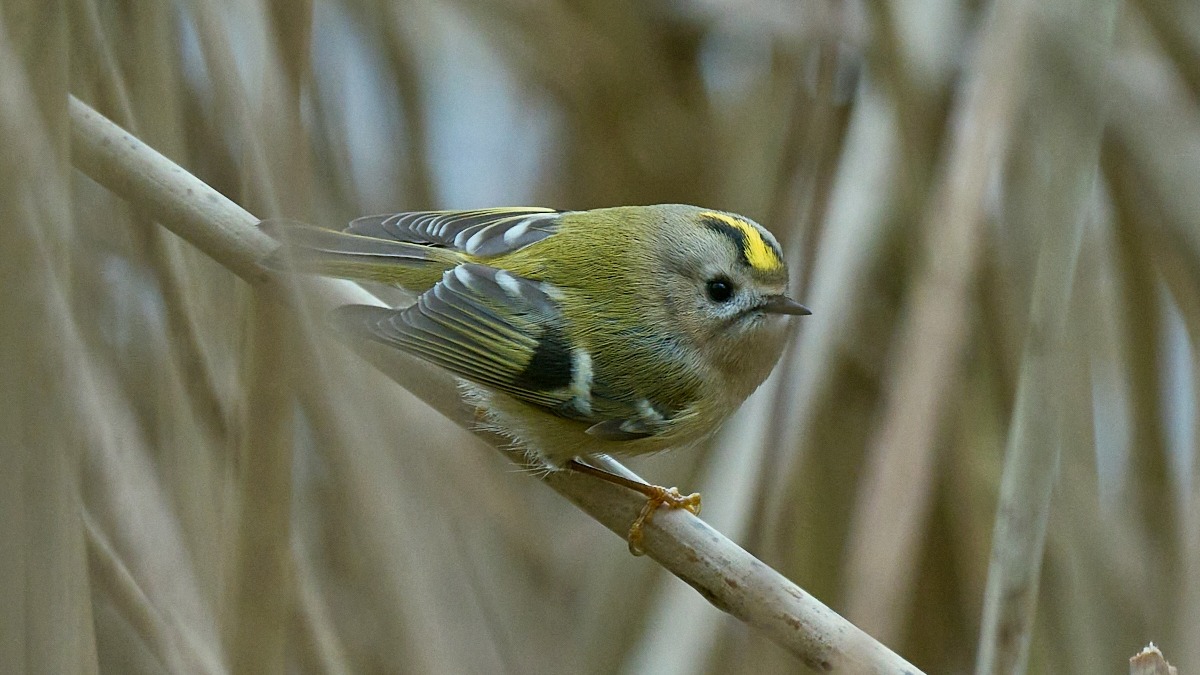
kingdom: Animalia
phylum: Chordata
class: Aves
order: Passeriformes
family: Regulidae
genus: Regulus
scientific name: Regulus regulus
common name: Fuglekonge
